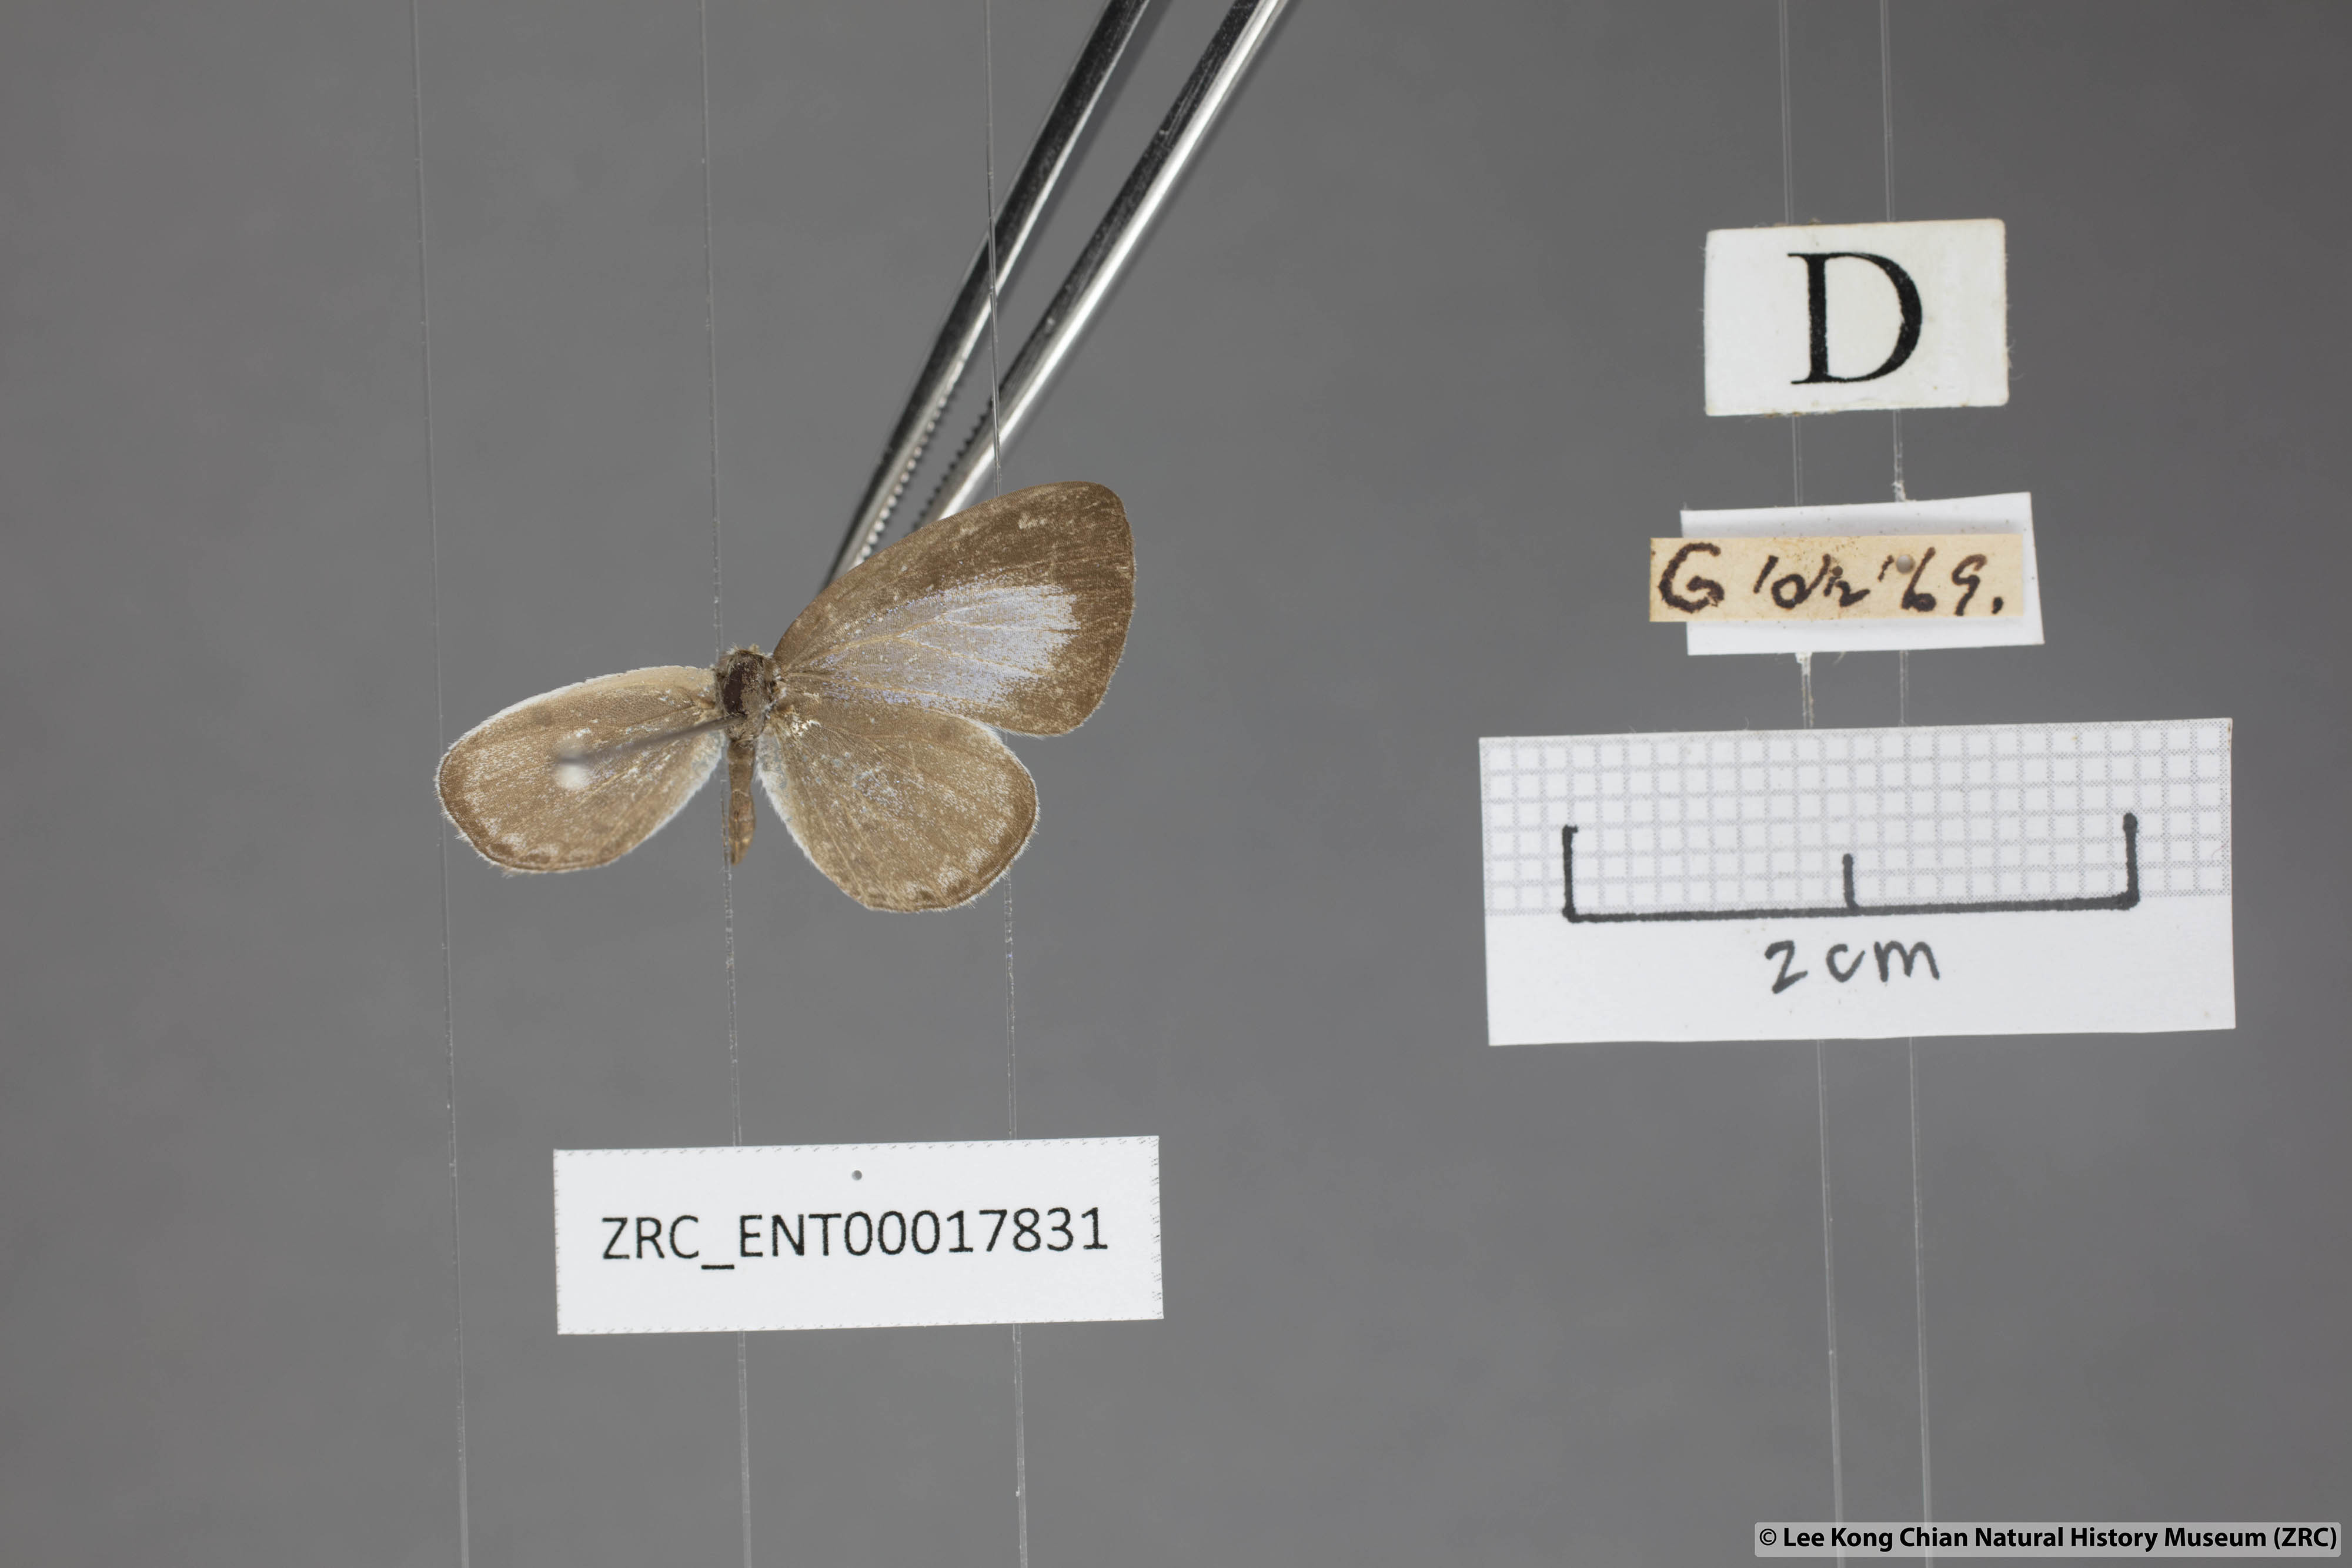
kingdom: Animalia
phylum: Arthropoda
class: Insecta
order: Lepidoptera
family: Lycaenidae
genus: Cebrella
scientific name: Cebrella
